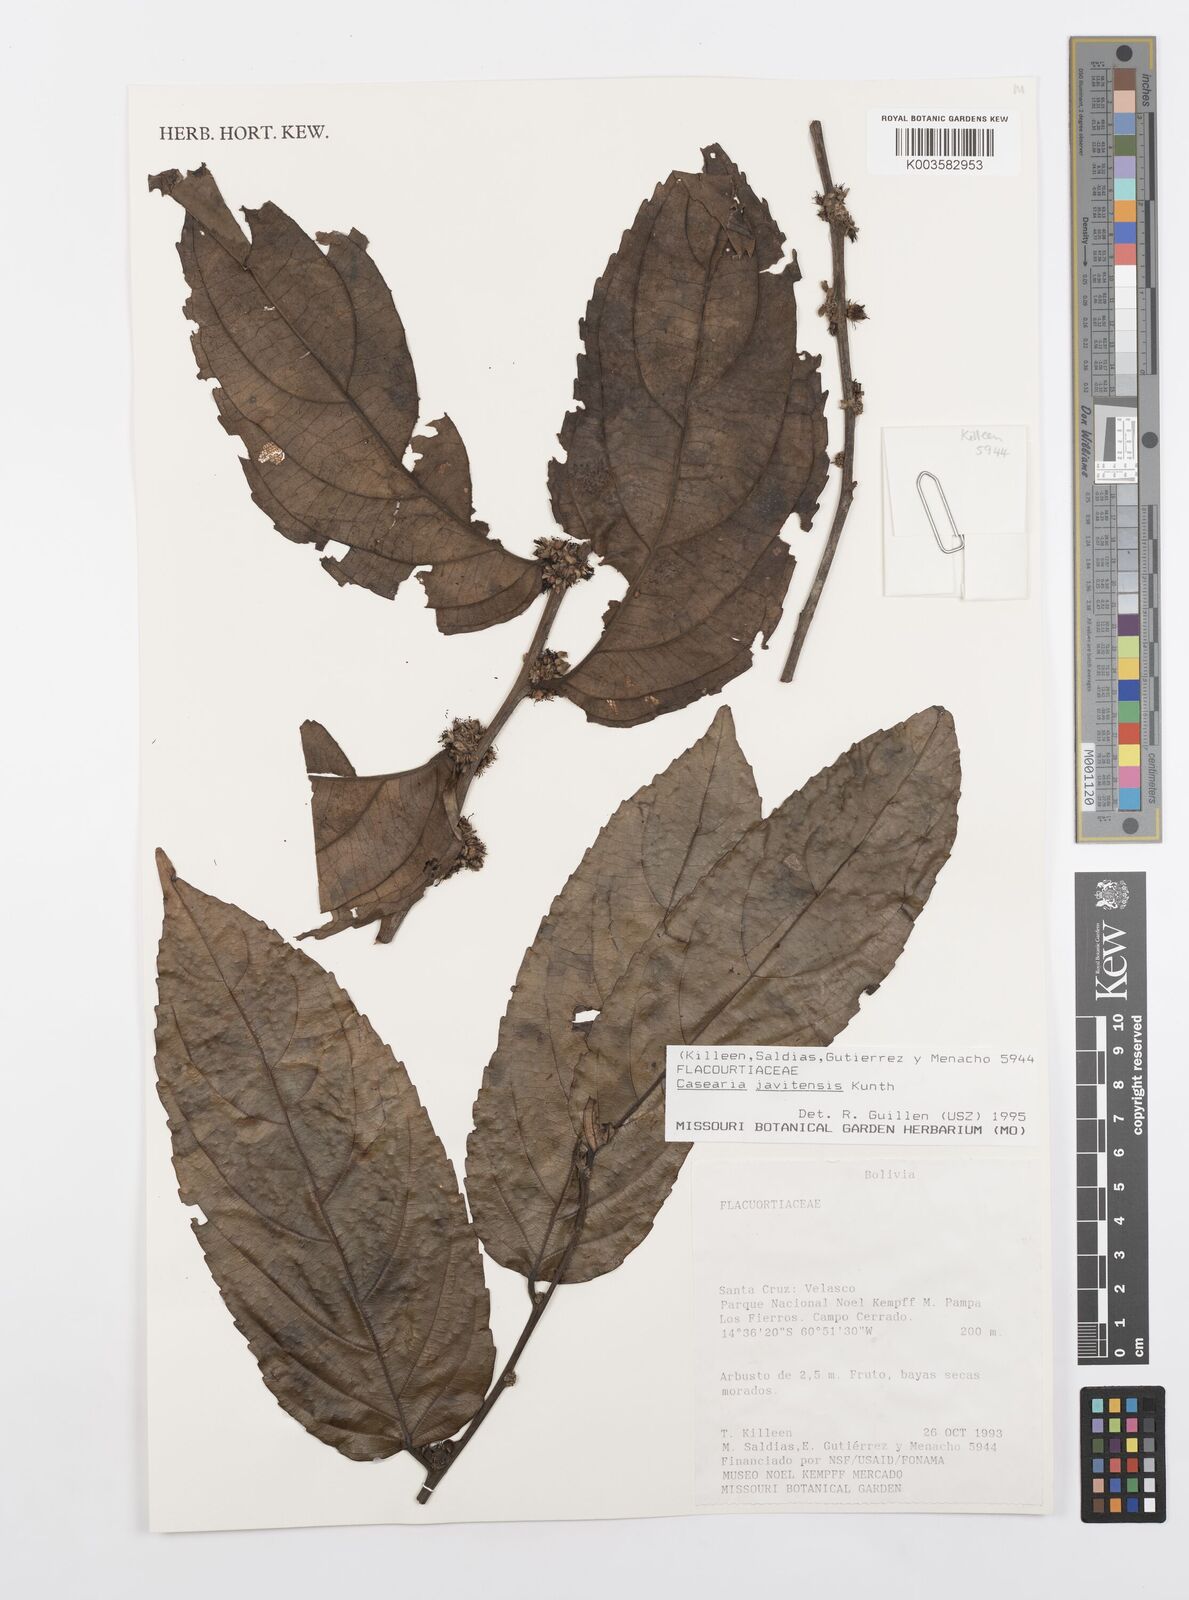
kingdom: Plantae
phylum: Tracheophyta
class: Magnoliopsida
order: Malpighiales
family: Salicaceae
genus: Piparea
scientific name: Piparea multiflora
